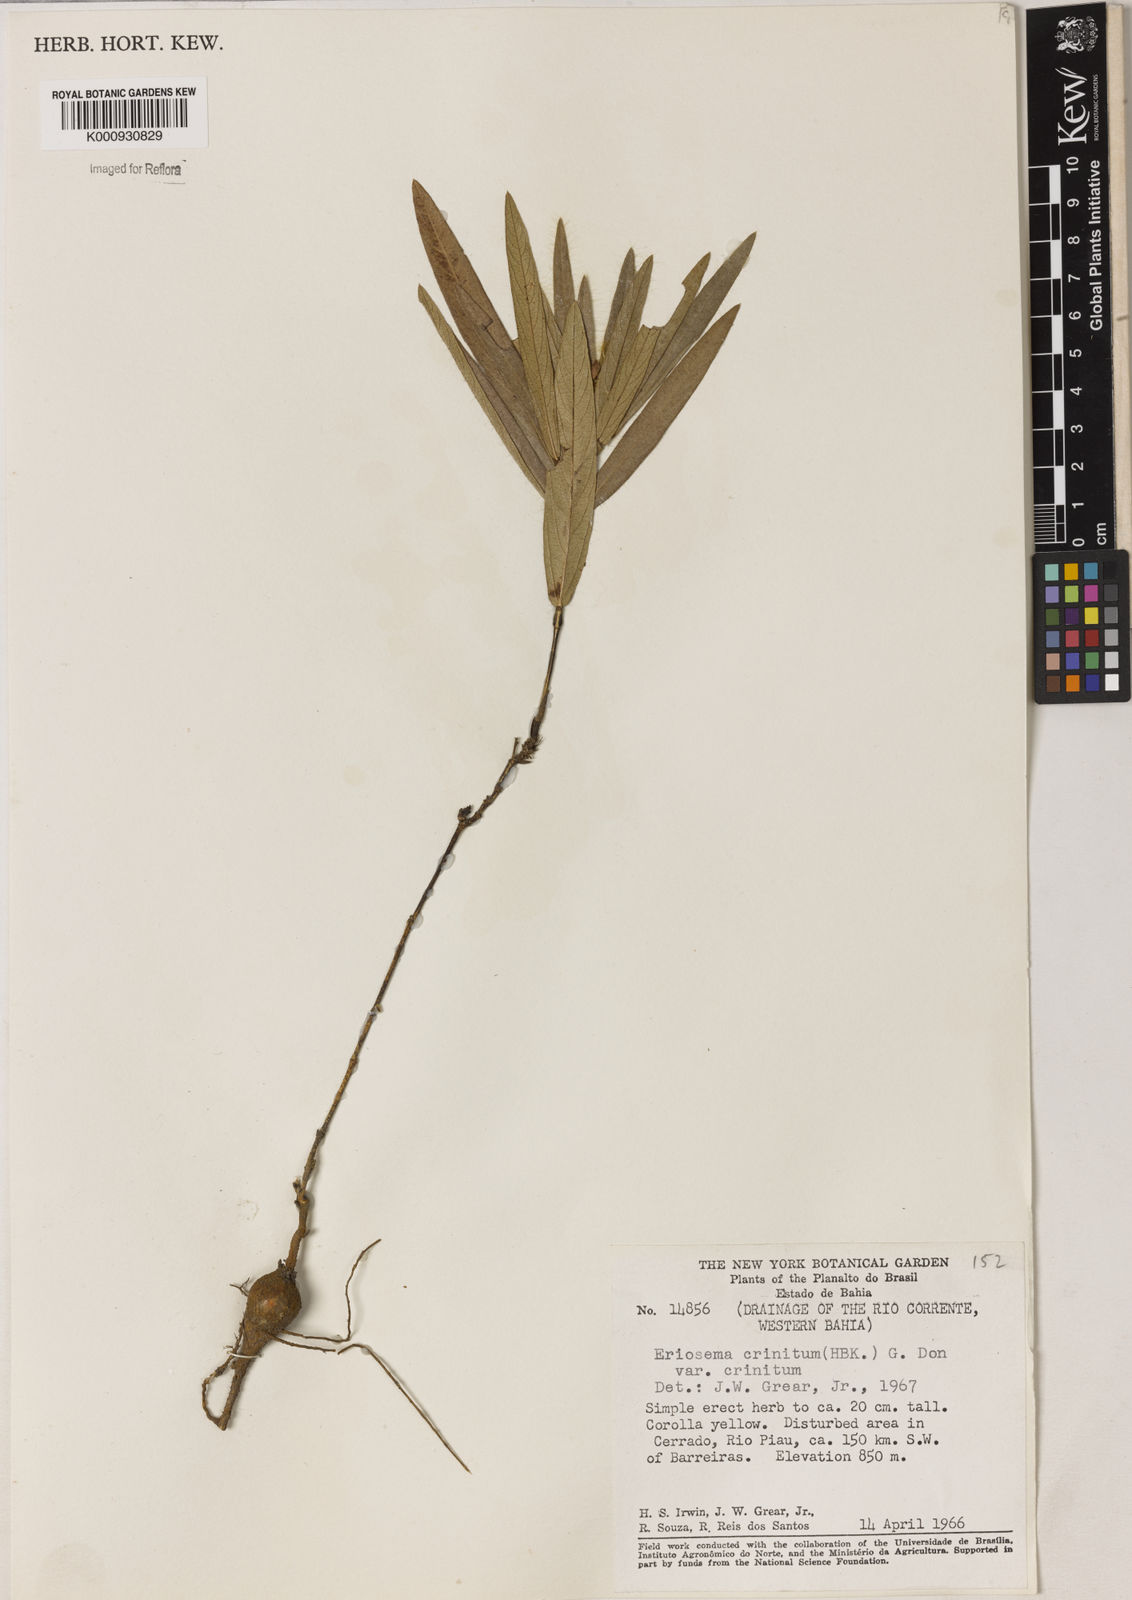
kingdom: Plantae
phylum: Tracheophyta
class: Magnoliopsida
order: Fabales
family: Fabaceae
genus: Eriosema
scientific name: Eriosema crinitum
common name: Sand pea
